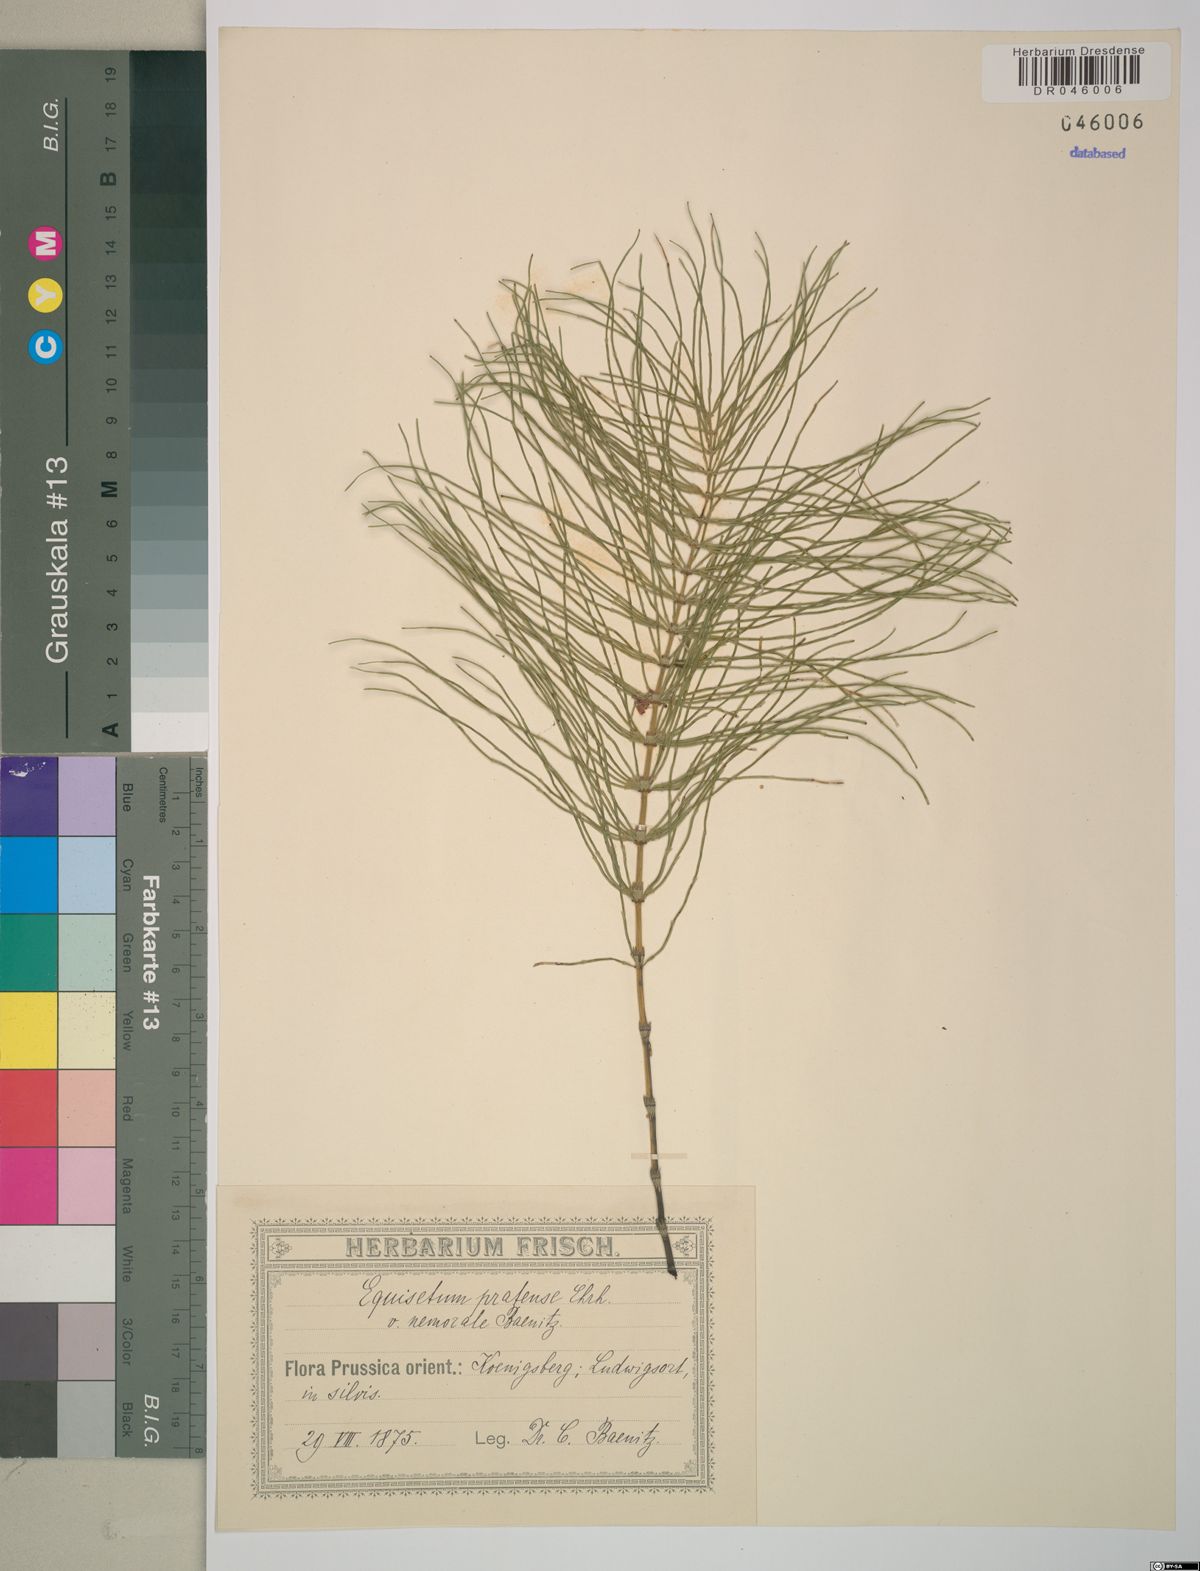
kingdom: Plantae
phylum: Tracheophyta
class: Polypodiopsida
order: Equisetales
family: Equisetaceae
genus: Equisetum
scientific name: Equisetum pratense
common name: Meadow horsetail
